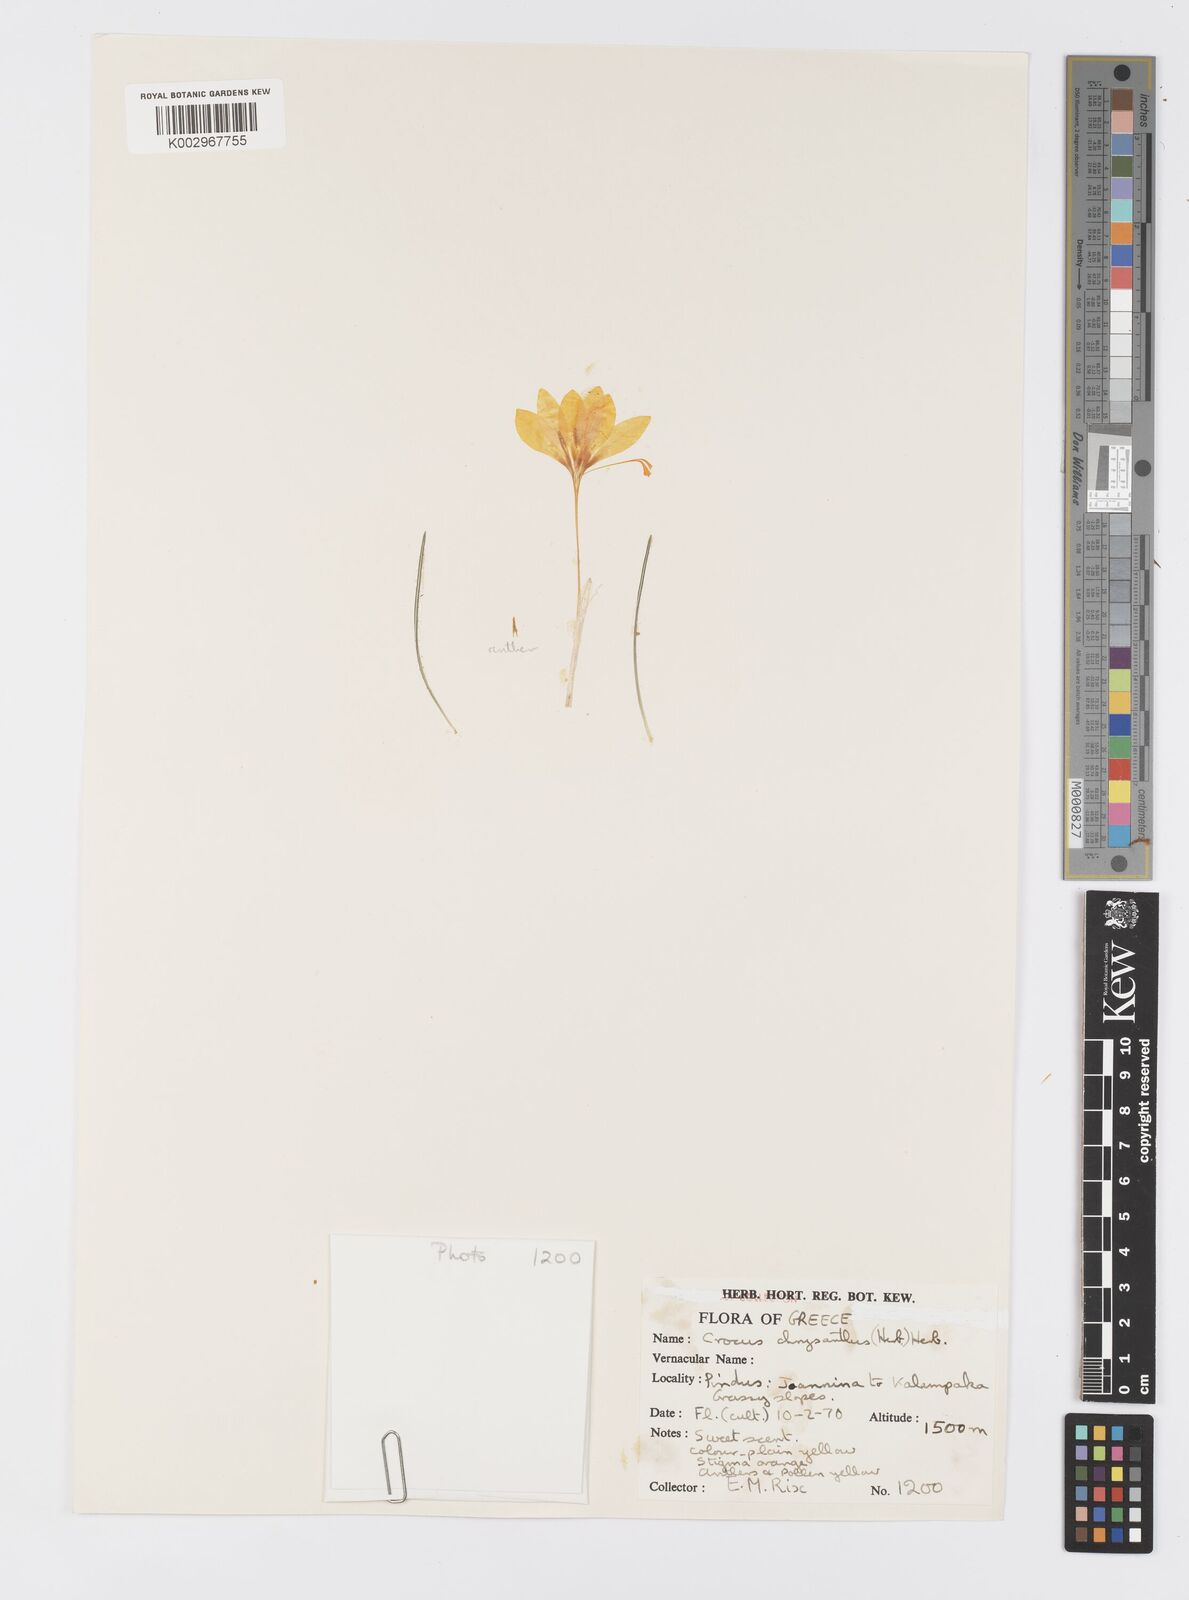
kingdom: Plantae
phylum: Tracheophyta
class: Liliopsida
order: Asparagales
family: Iridaceae
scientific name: Iridaceae
